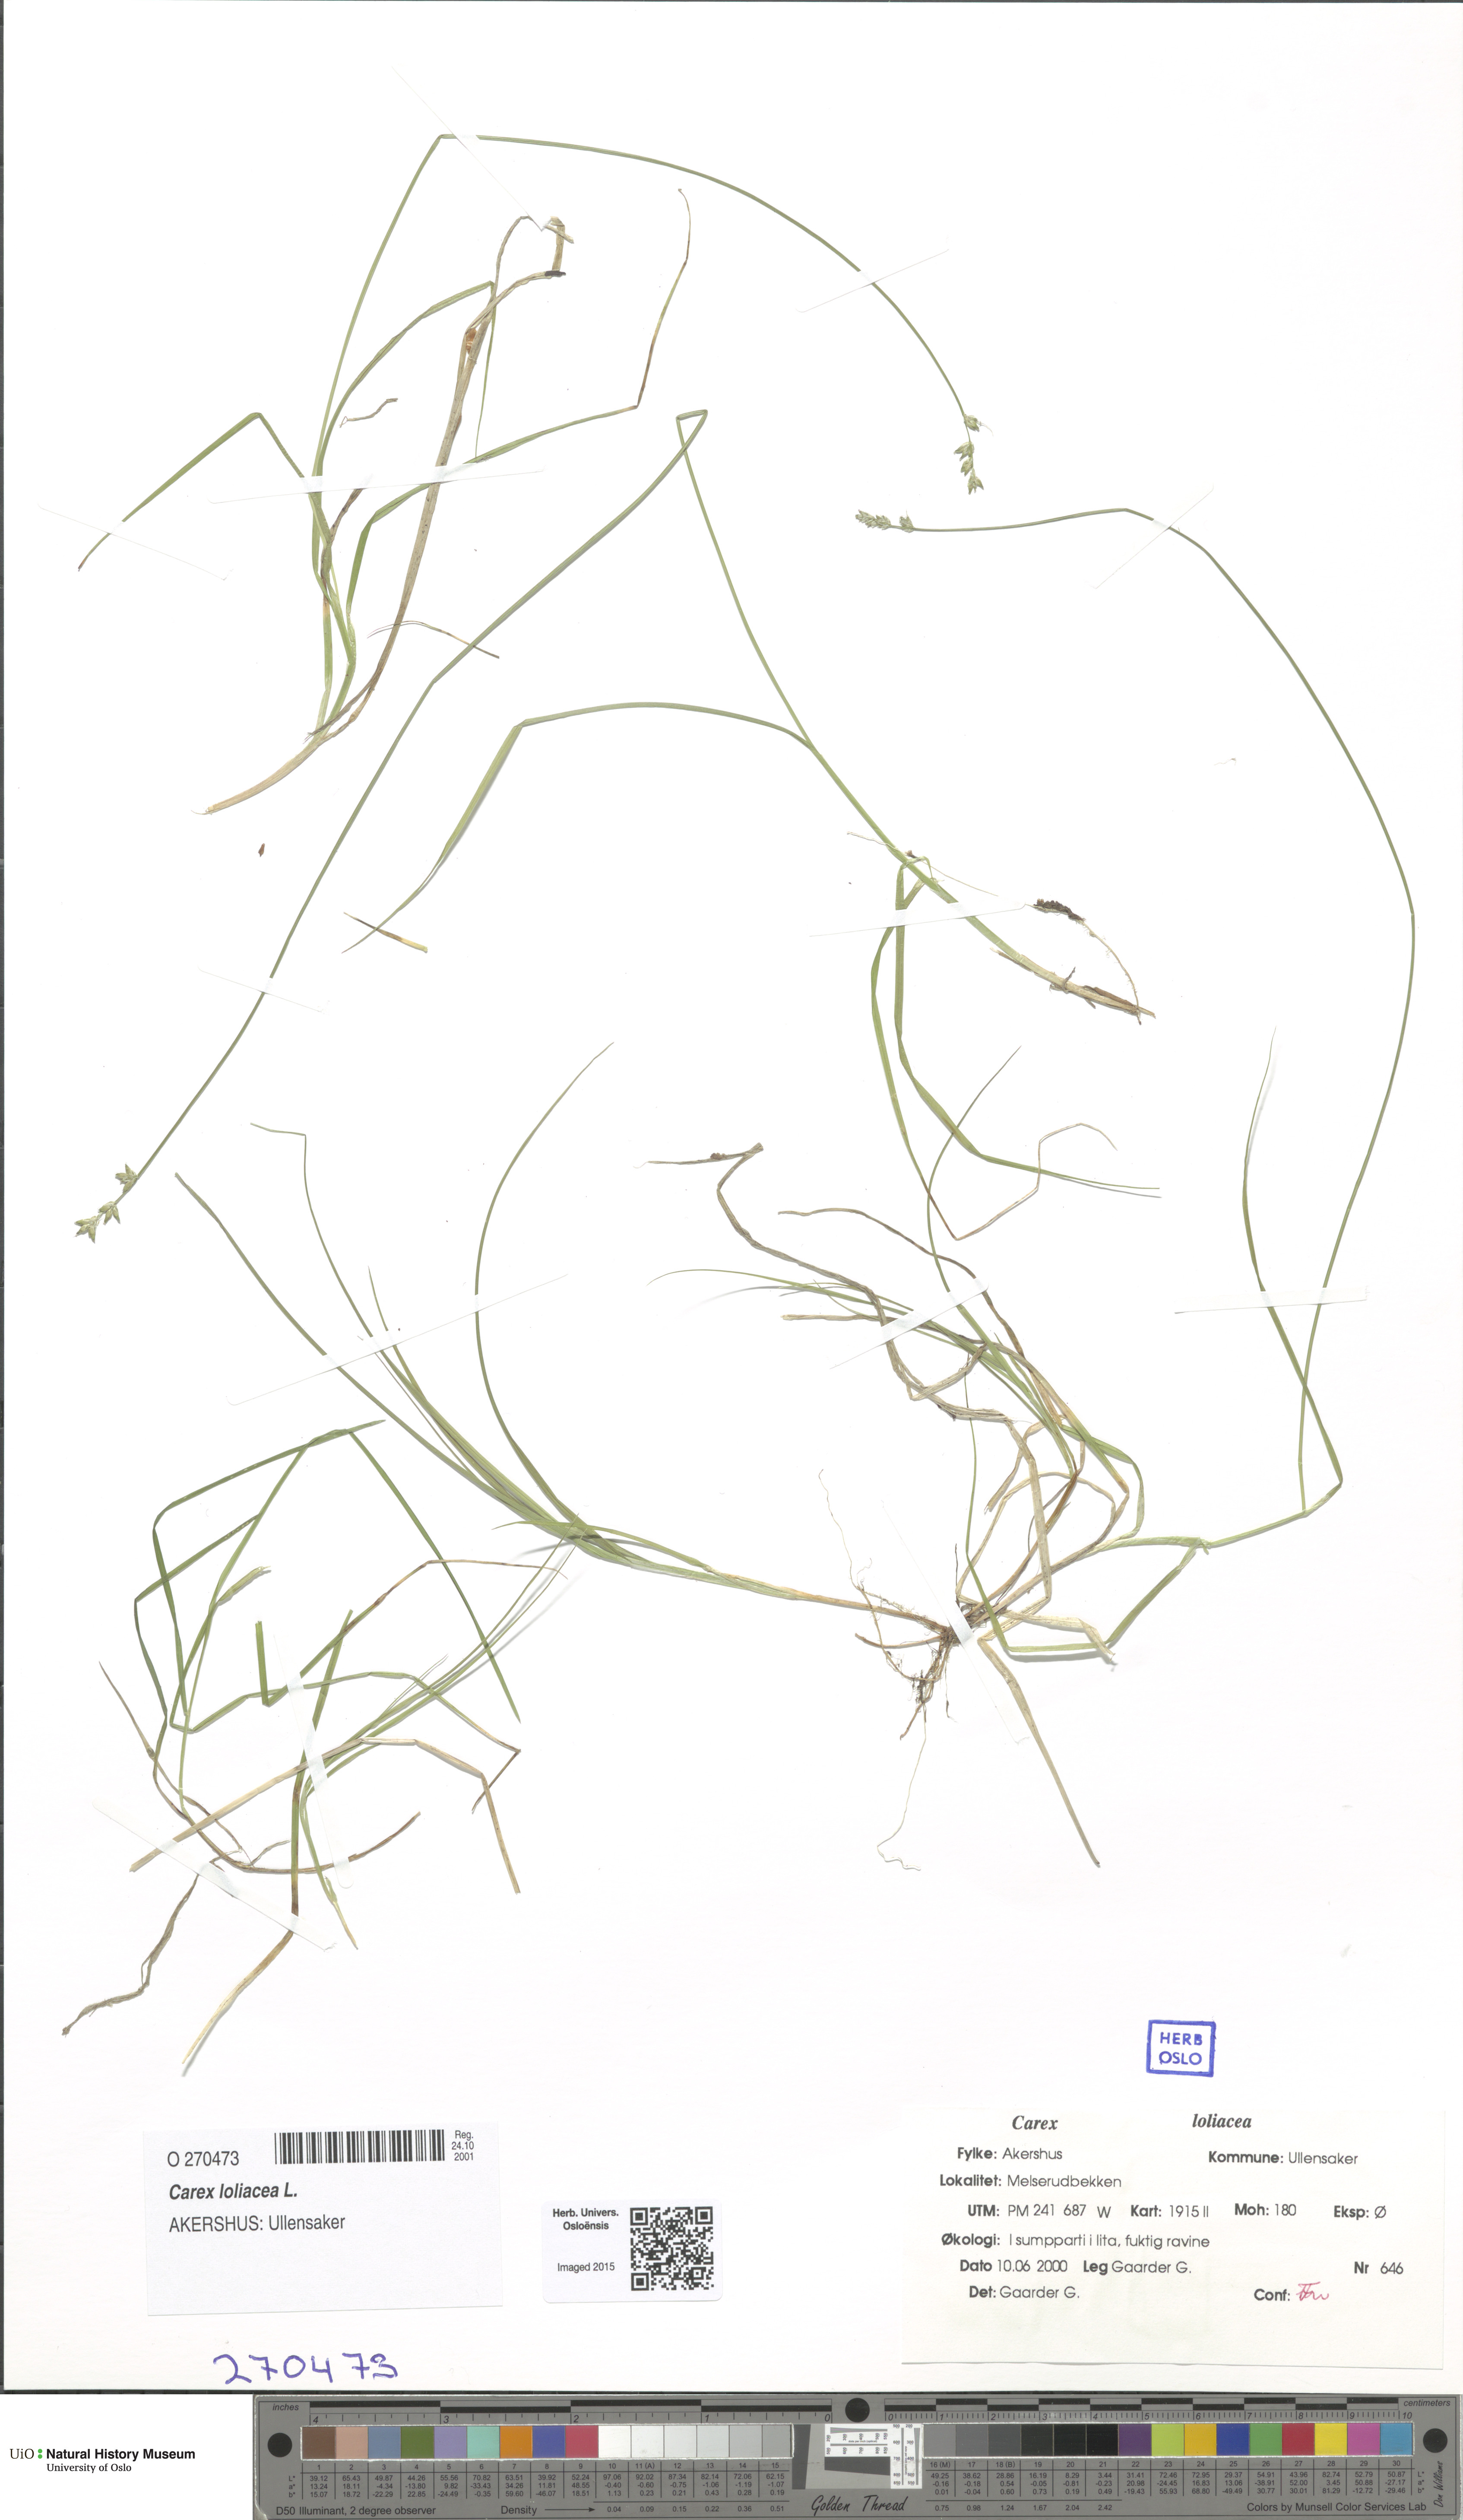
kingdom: Plantae
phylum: Tracheophyta
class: Liliopsida
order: Poales
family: Cyperaceae
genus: Carex
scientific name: Carex loliacea
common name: Ryegrass sedge
